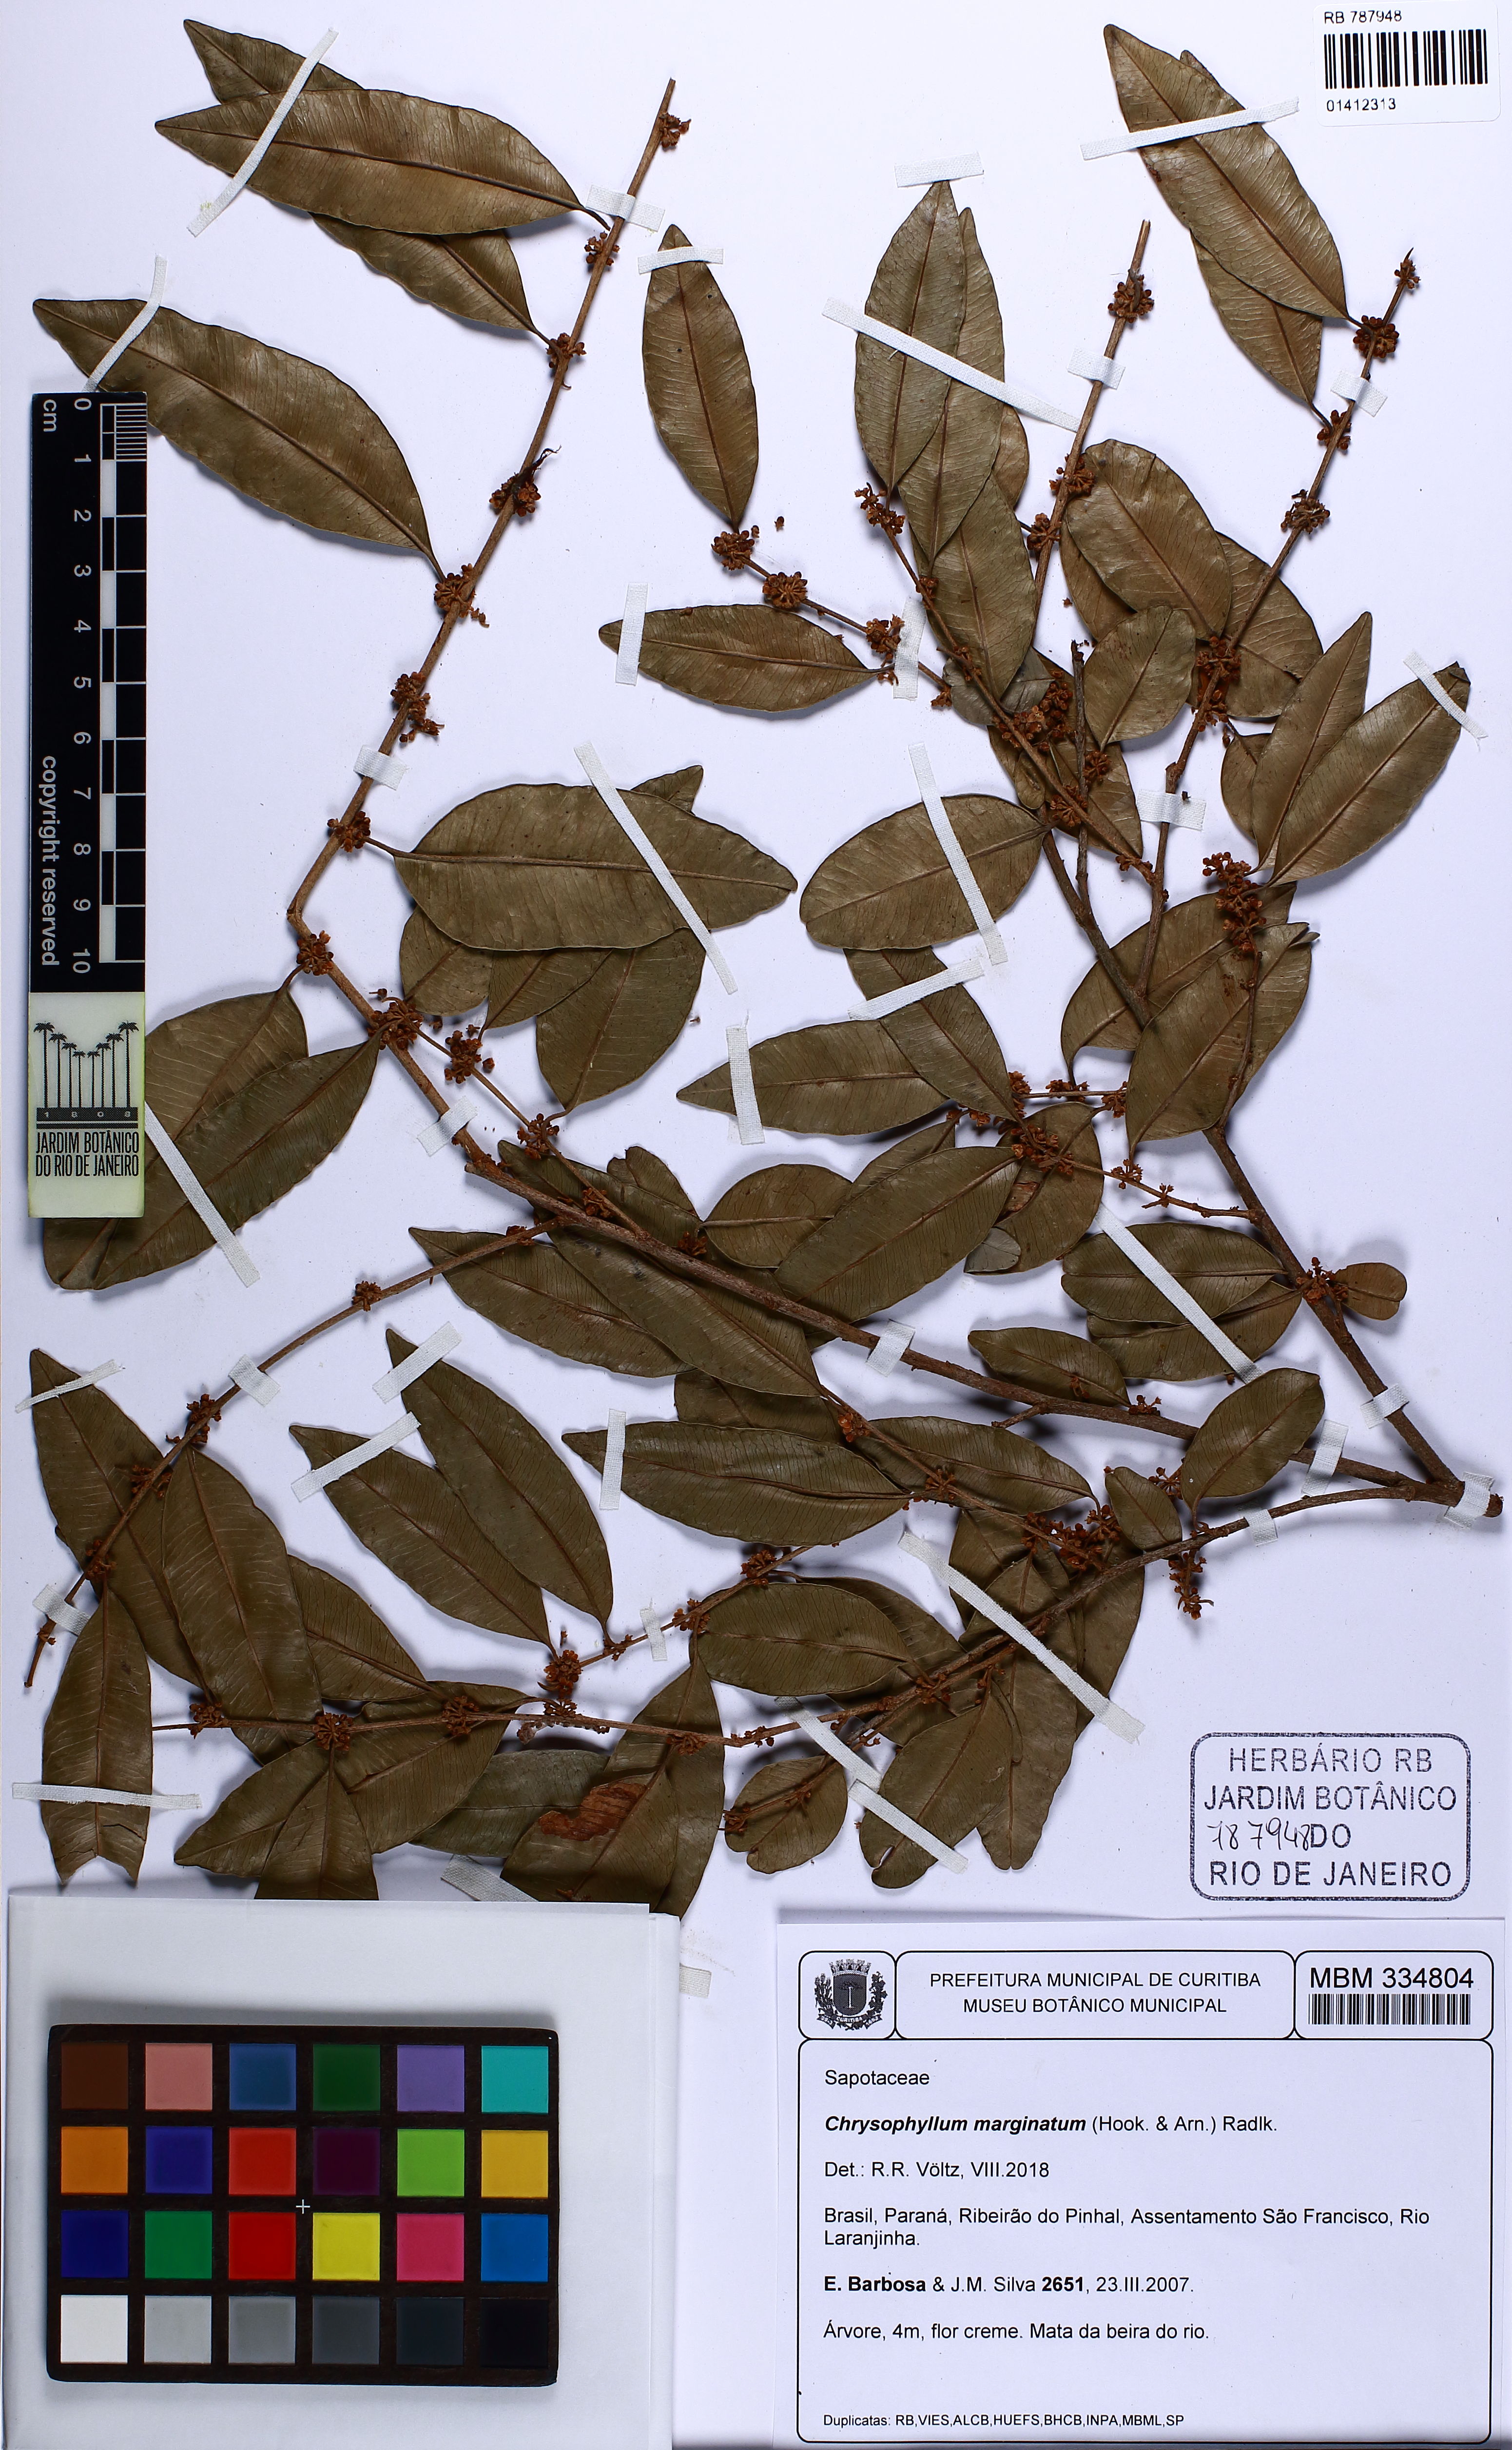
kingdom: Plantae
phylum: Tracheophyta
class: Magnoliopsida
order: Ericales
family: Sapotaceae
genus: Chrysophyllum
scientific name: Chrysophyllum marginatum
